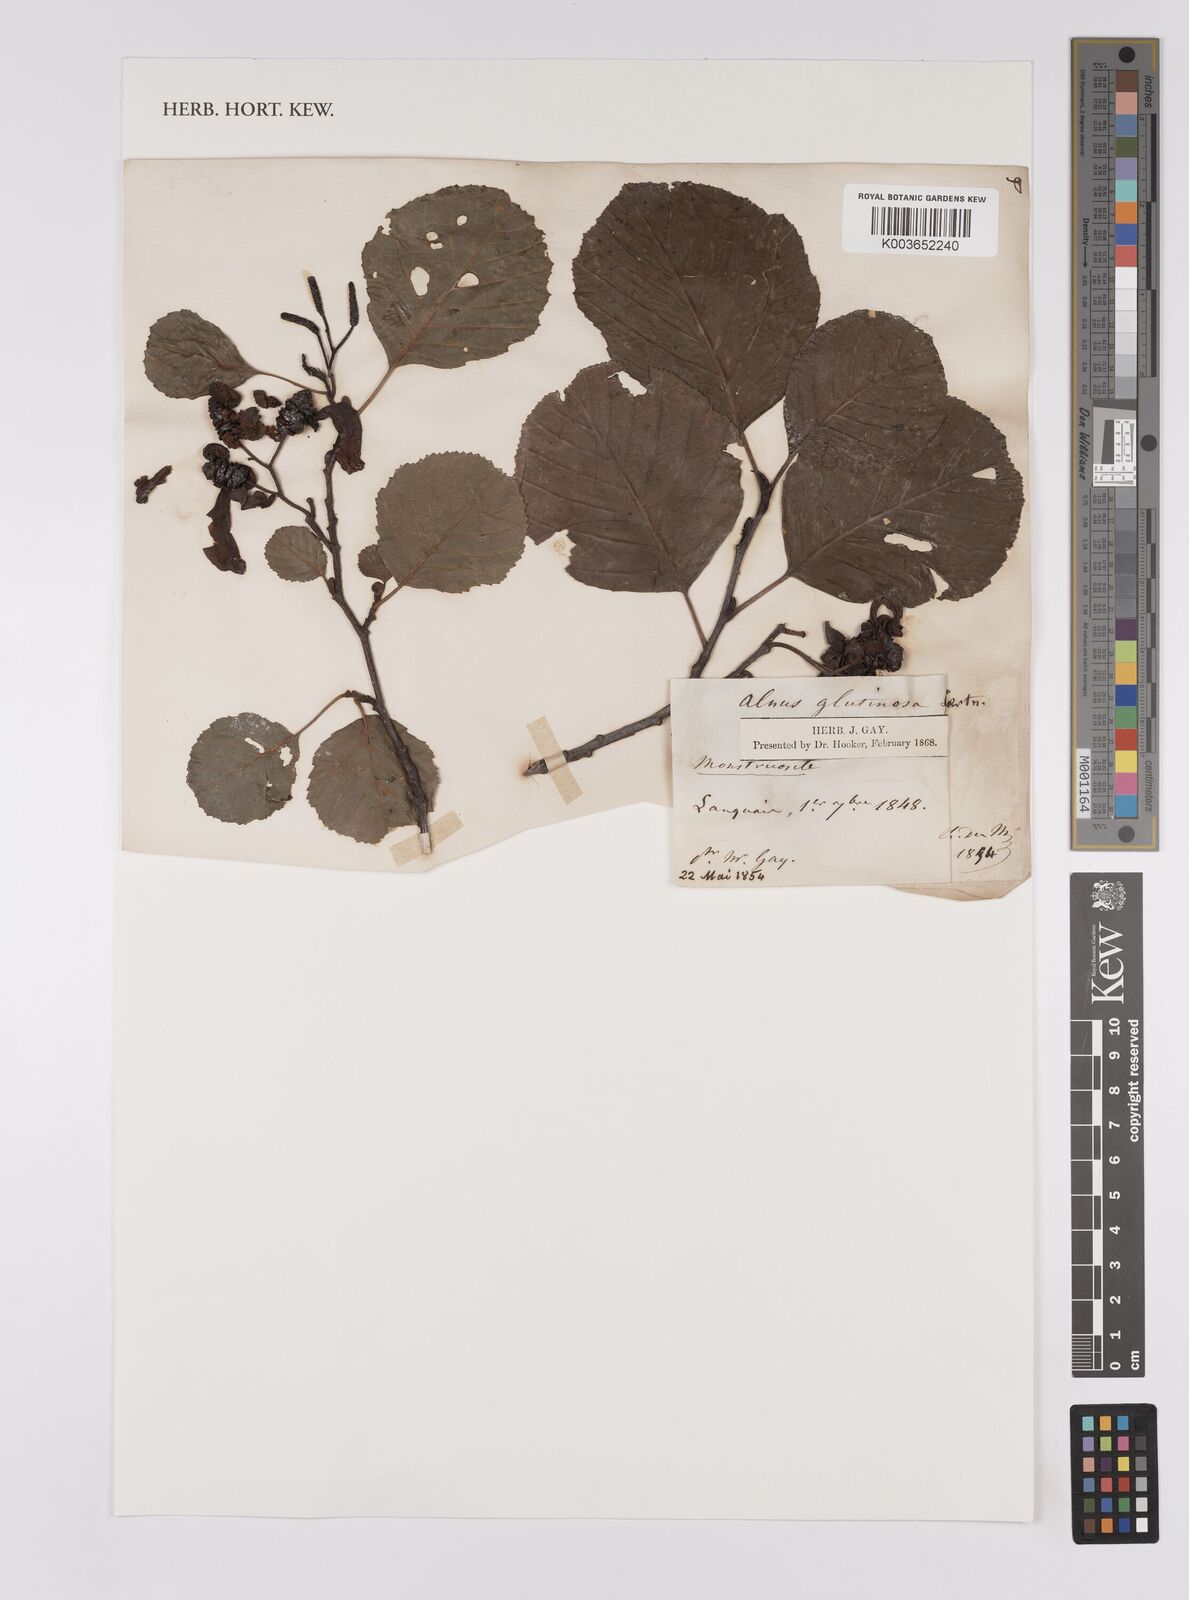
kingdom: Plantae
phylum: Tracheophyta
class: Magnoliopsida
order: Fagales
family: Betulaceae
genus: Alnus
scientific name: Alnus glutinosa
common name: Black alder
